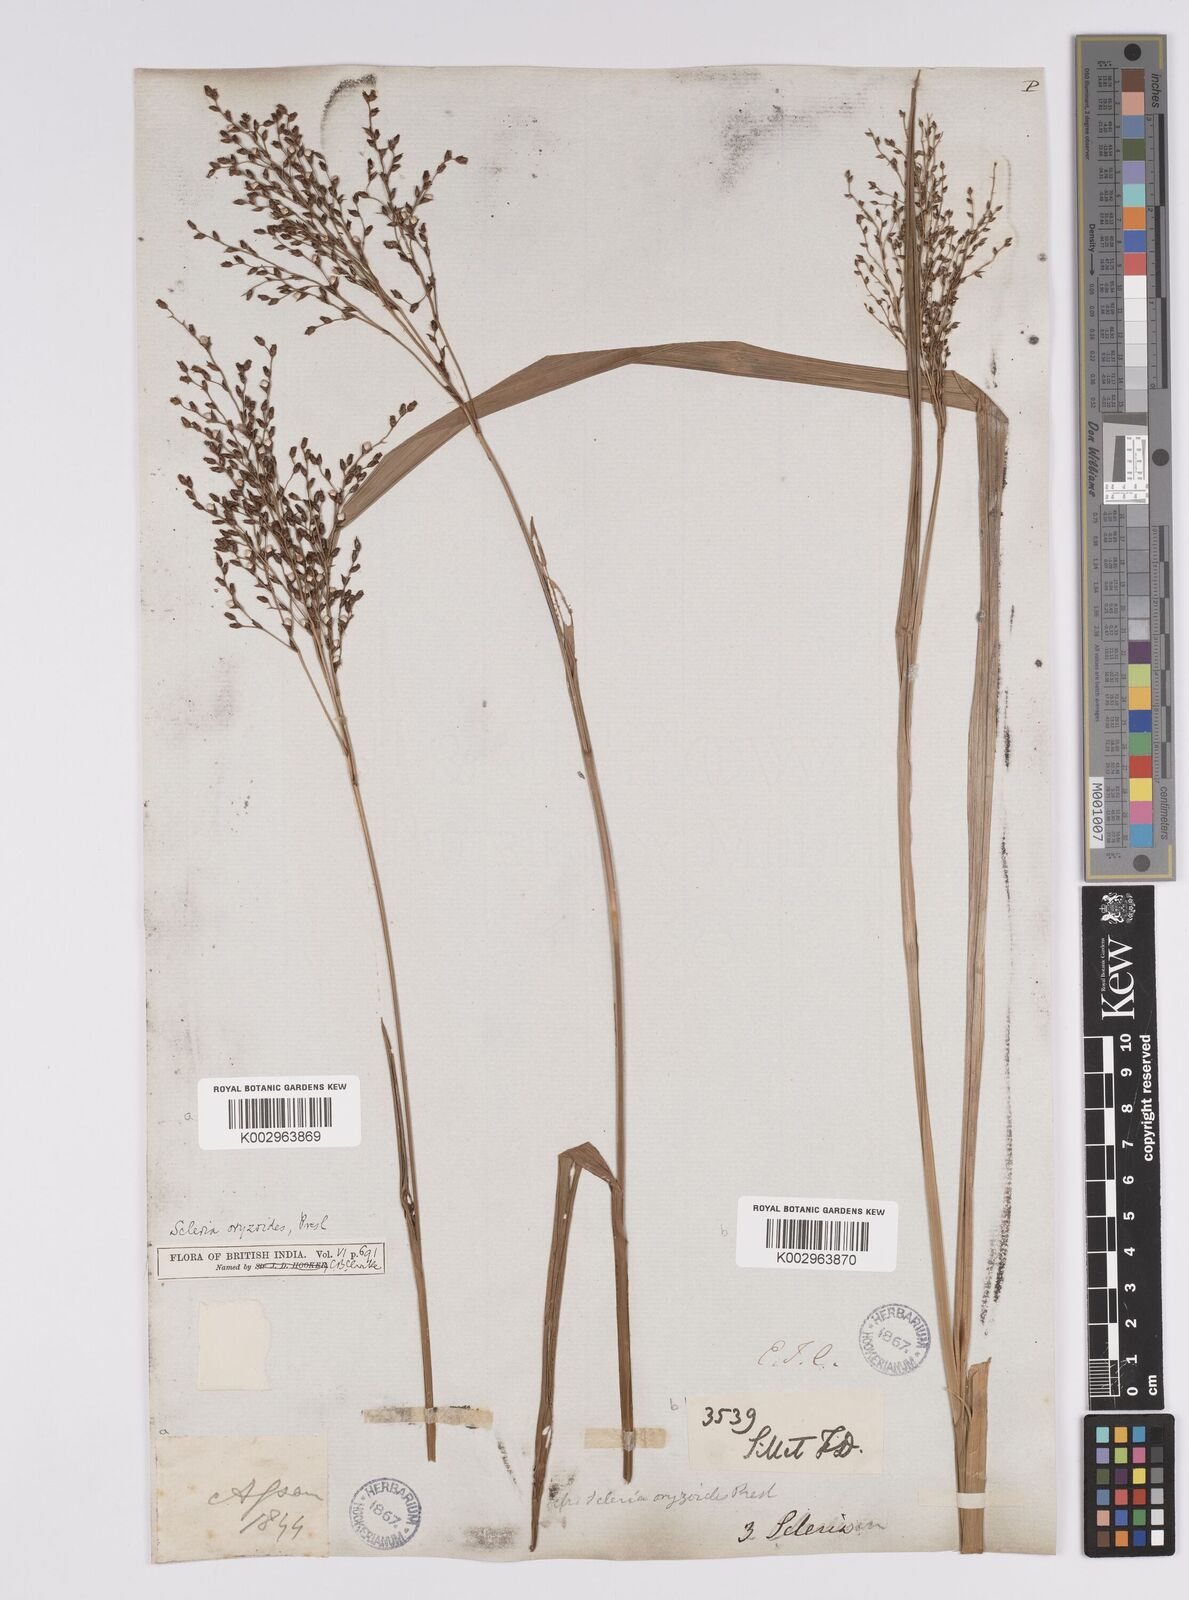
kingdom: Plantae
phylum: Tracheophyta
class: Liliopsida
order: Poales
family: Cyperaceae
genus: Scleria
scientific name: Scleria poiformis
